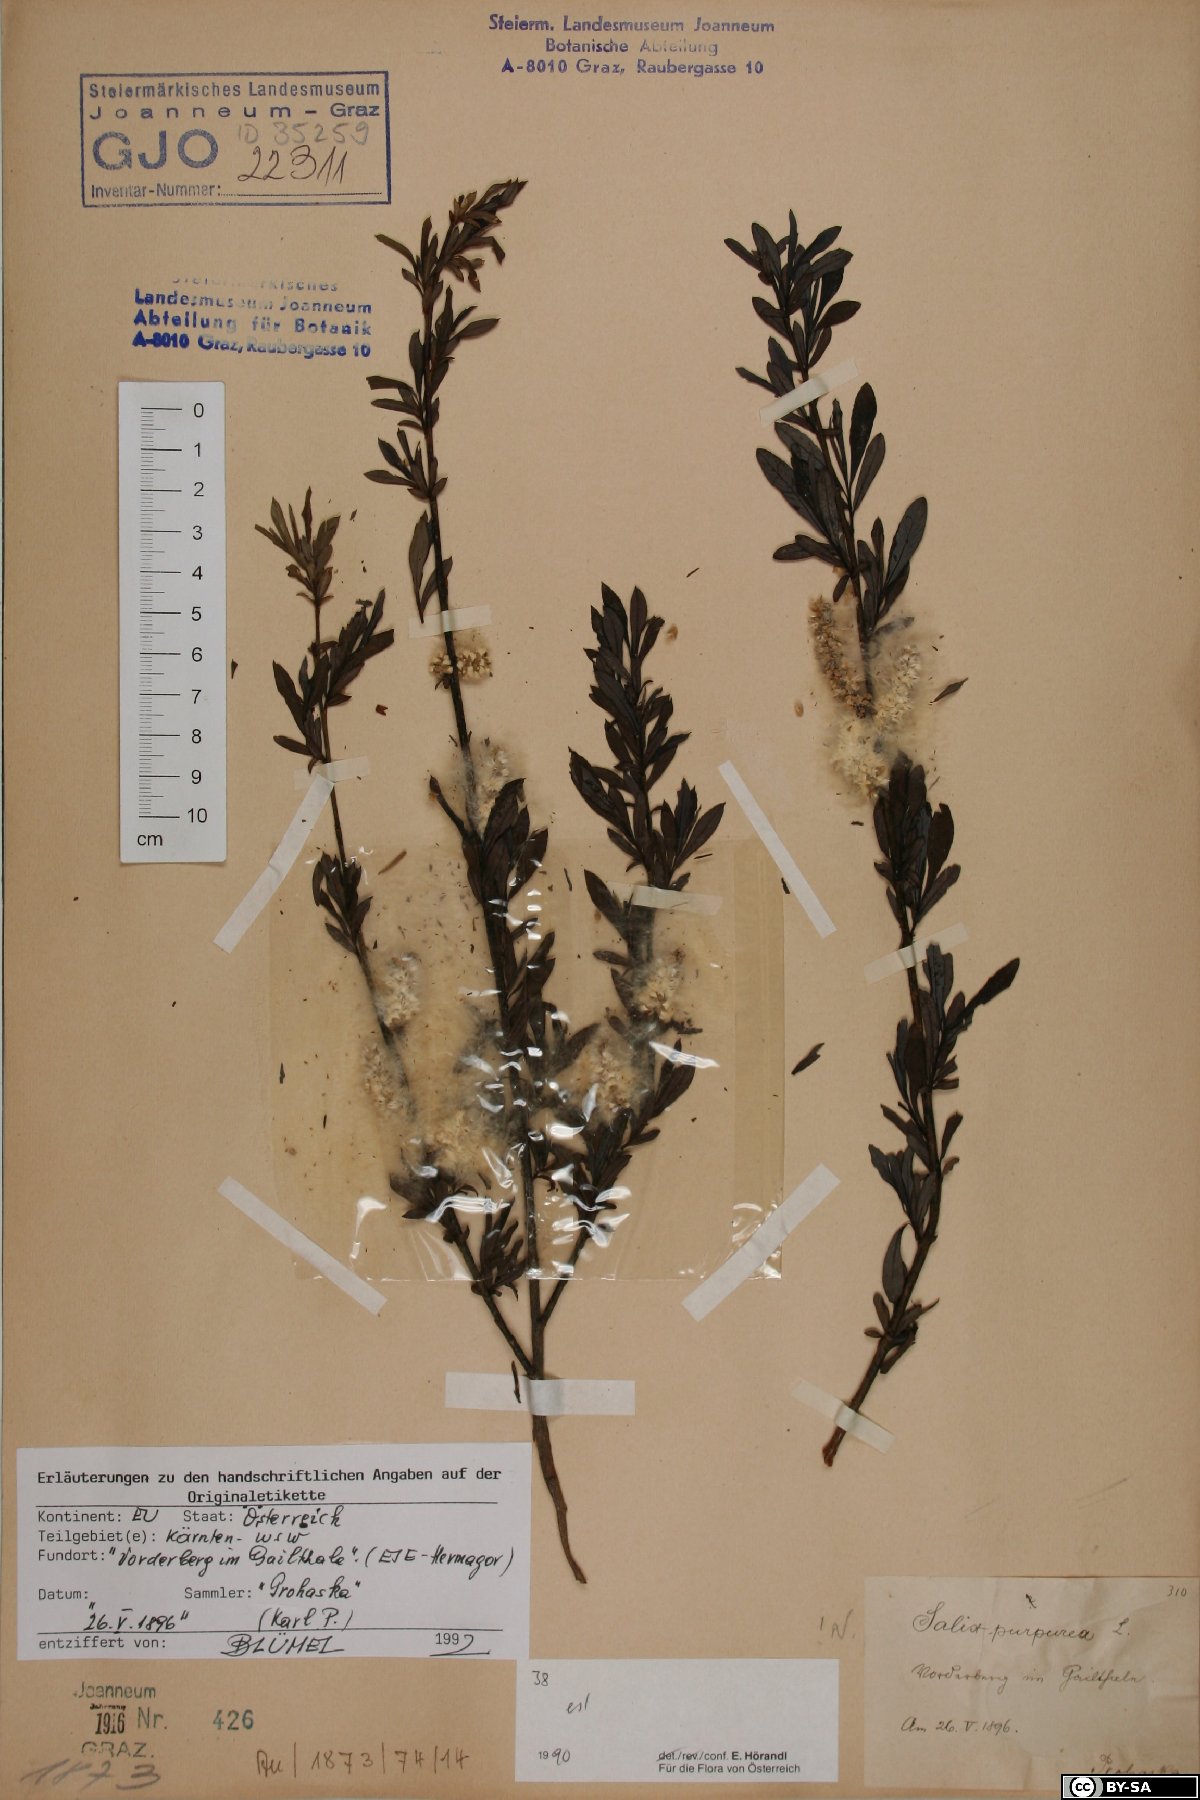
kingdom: Plantae
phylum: Tracheophyta
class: Magnoliopsida
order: Malpighiales
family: Salicaceae
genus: Salix
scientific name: Salix purpurea
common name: Purple willow
